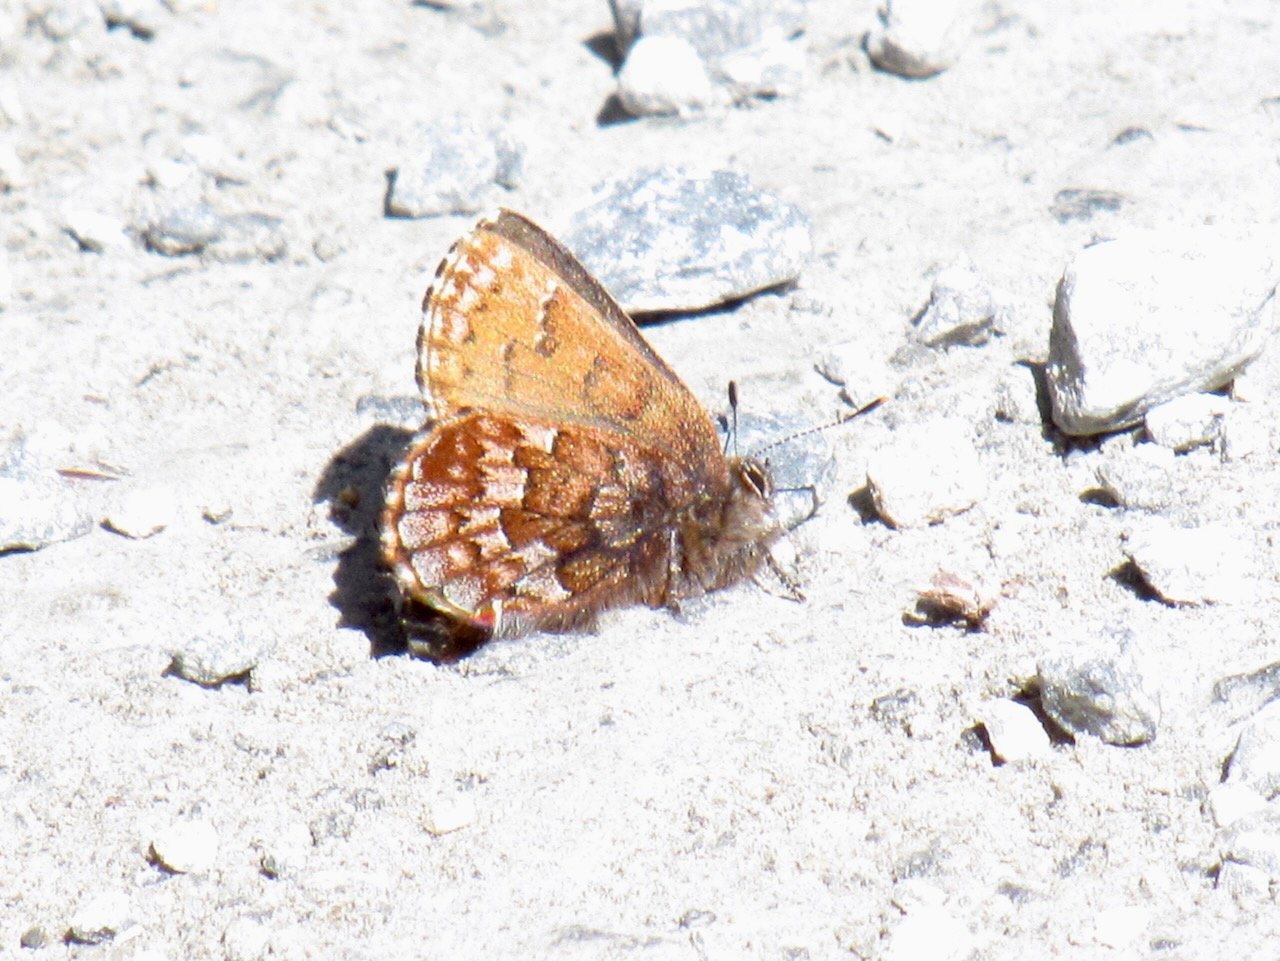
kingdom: Animalia
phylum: Arthropoda
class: Insecta
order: Lepidoptera
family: Lycaenidae
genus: Incisalia
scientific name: Incisalia niphon
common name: Eastern Pine Elfin
